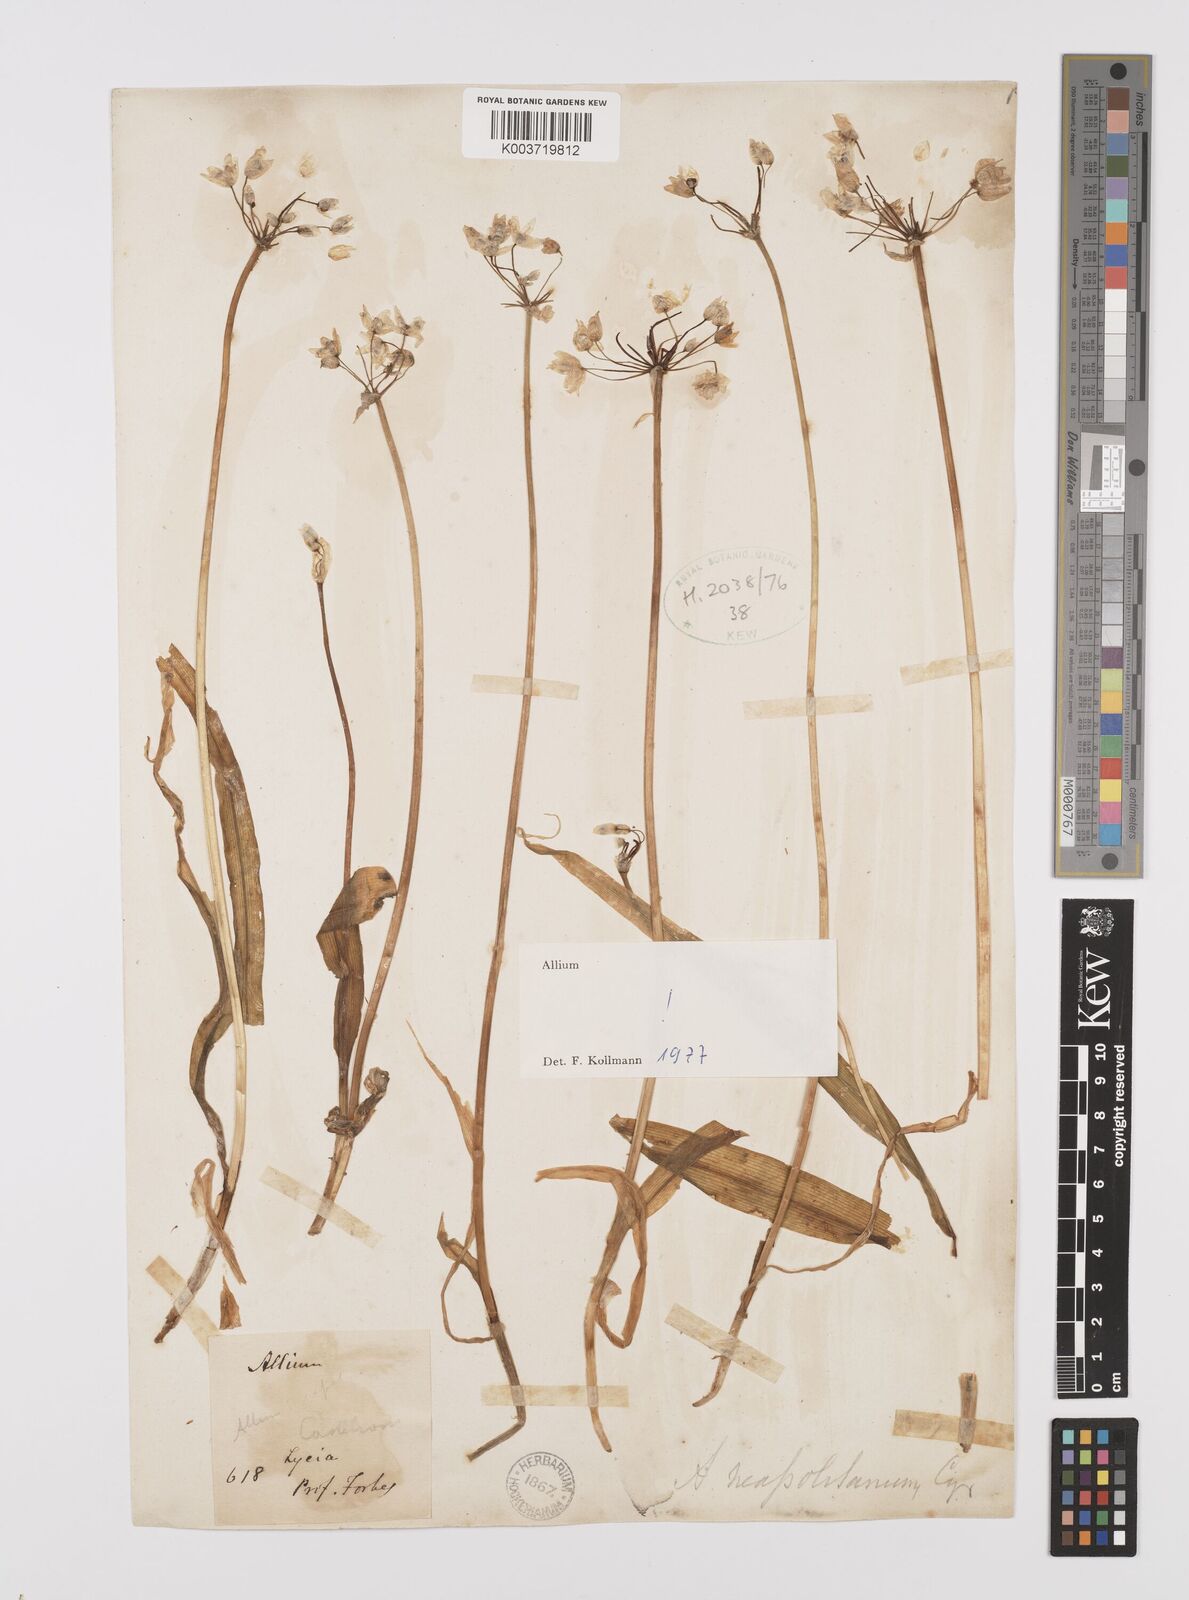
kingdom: Plantae
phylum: Tracheophyta
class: Liliopsida
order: Asparagales
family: Amaryllidaceae
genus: Allium
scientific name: Allium neapolitanum
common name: Neapolitan garlic
